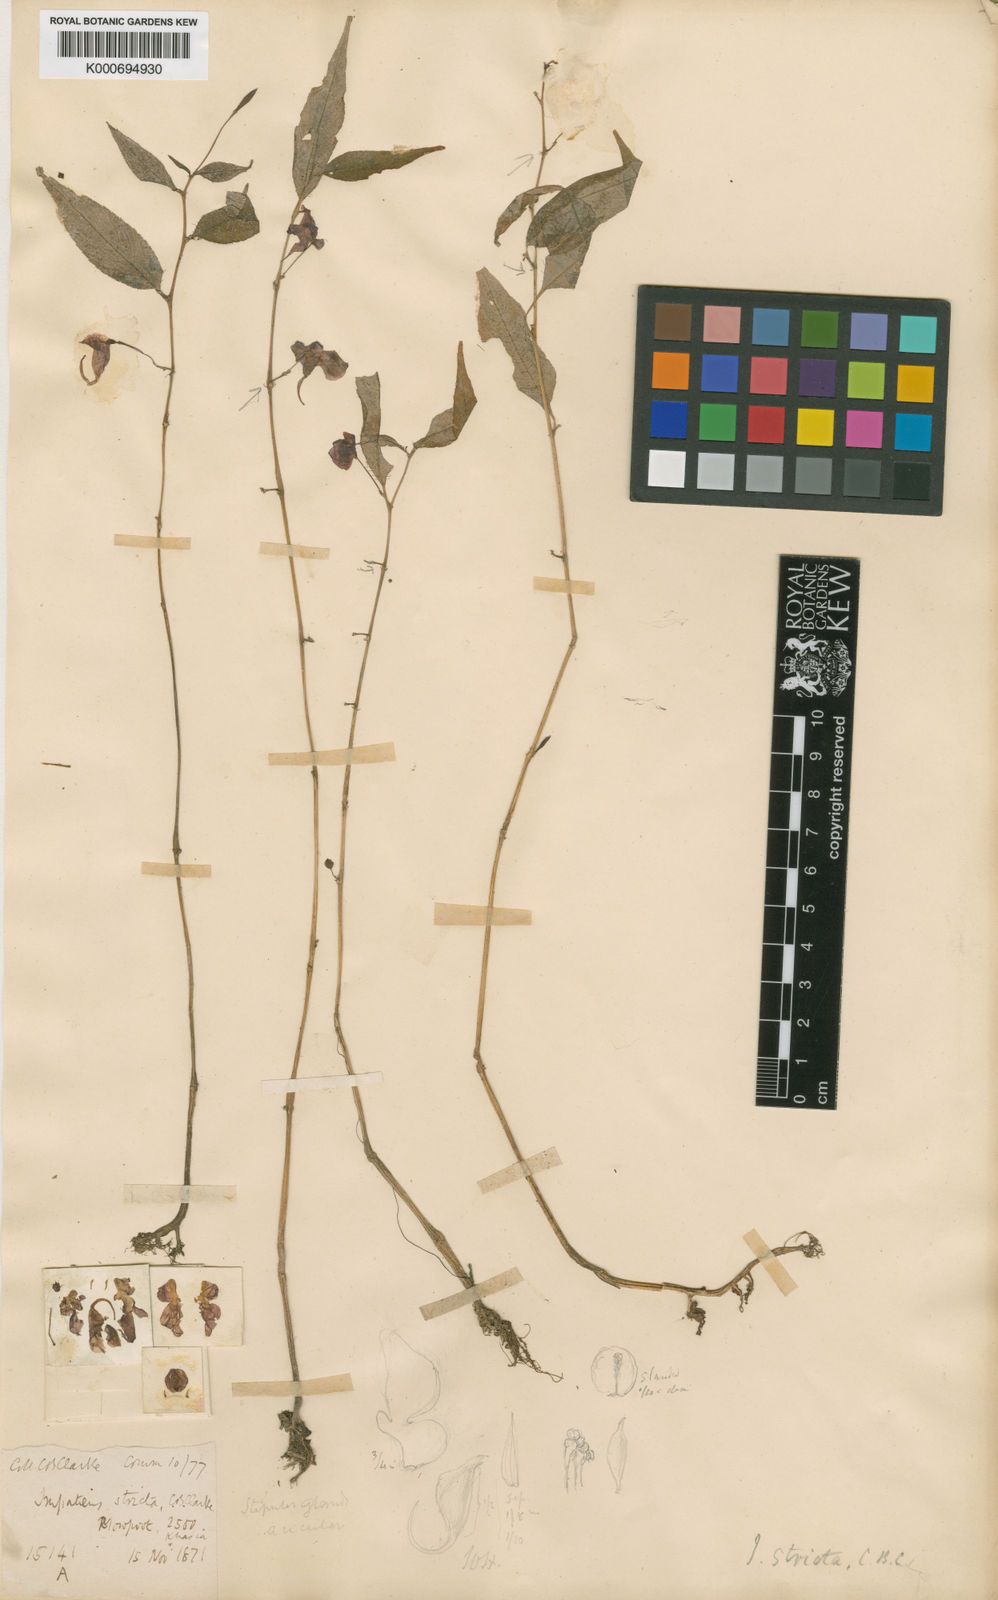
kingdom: Plantae
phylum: Tracheophyta
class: Magnoliopsida
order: Ericales
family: Balsaminaceae
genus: Impatiens
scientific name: Impatiens stricta
